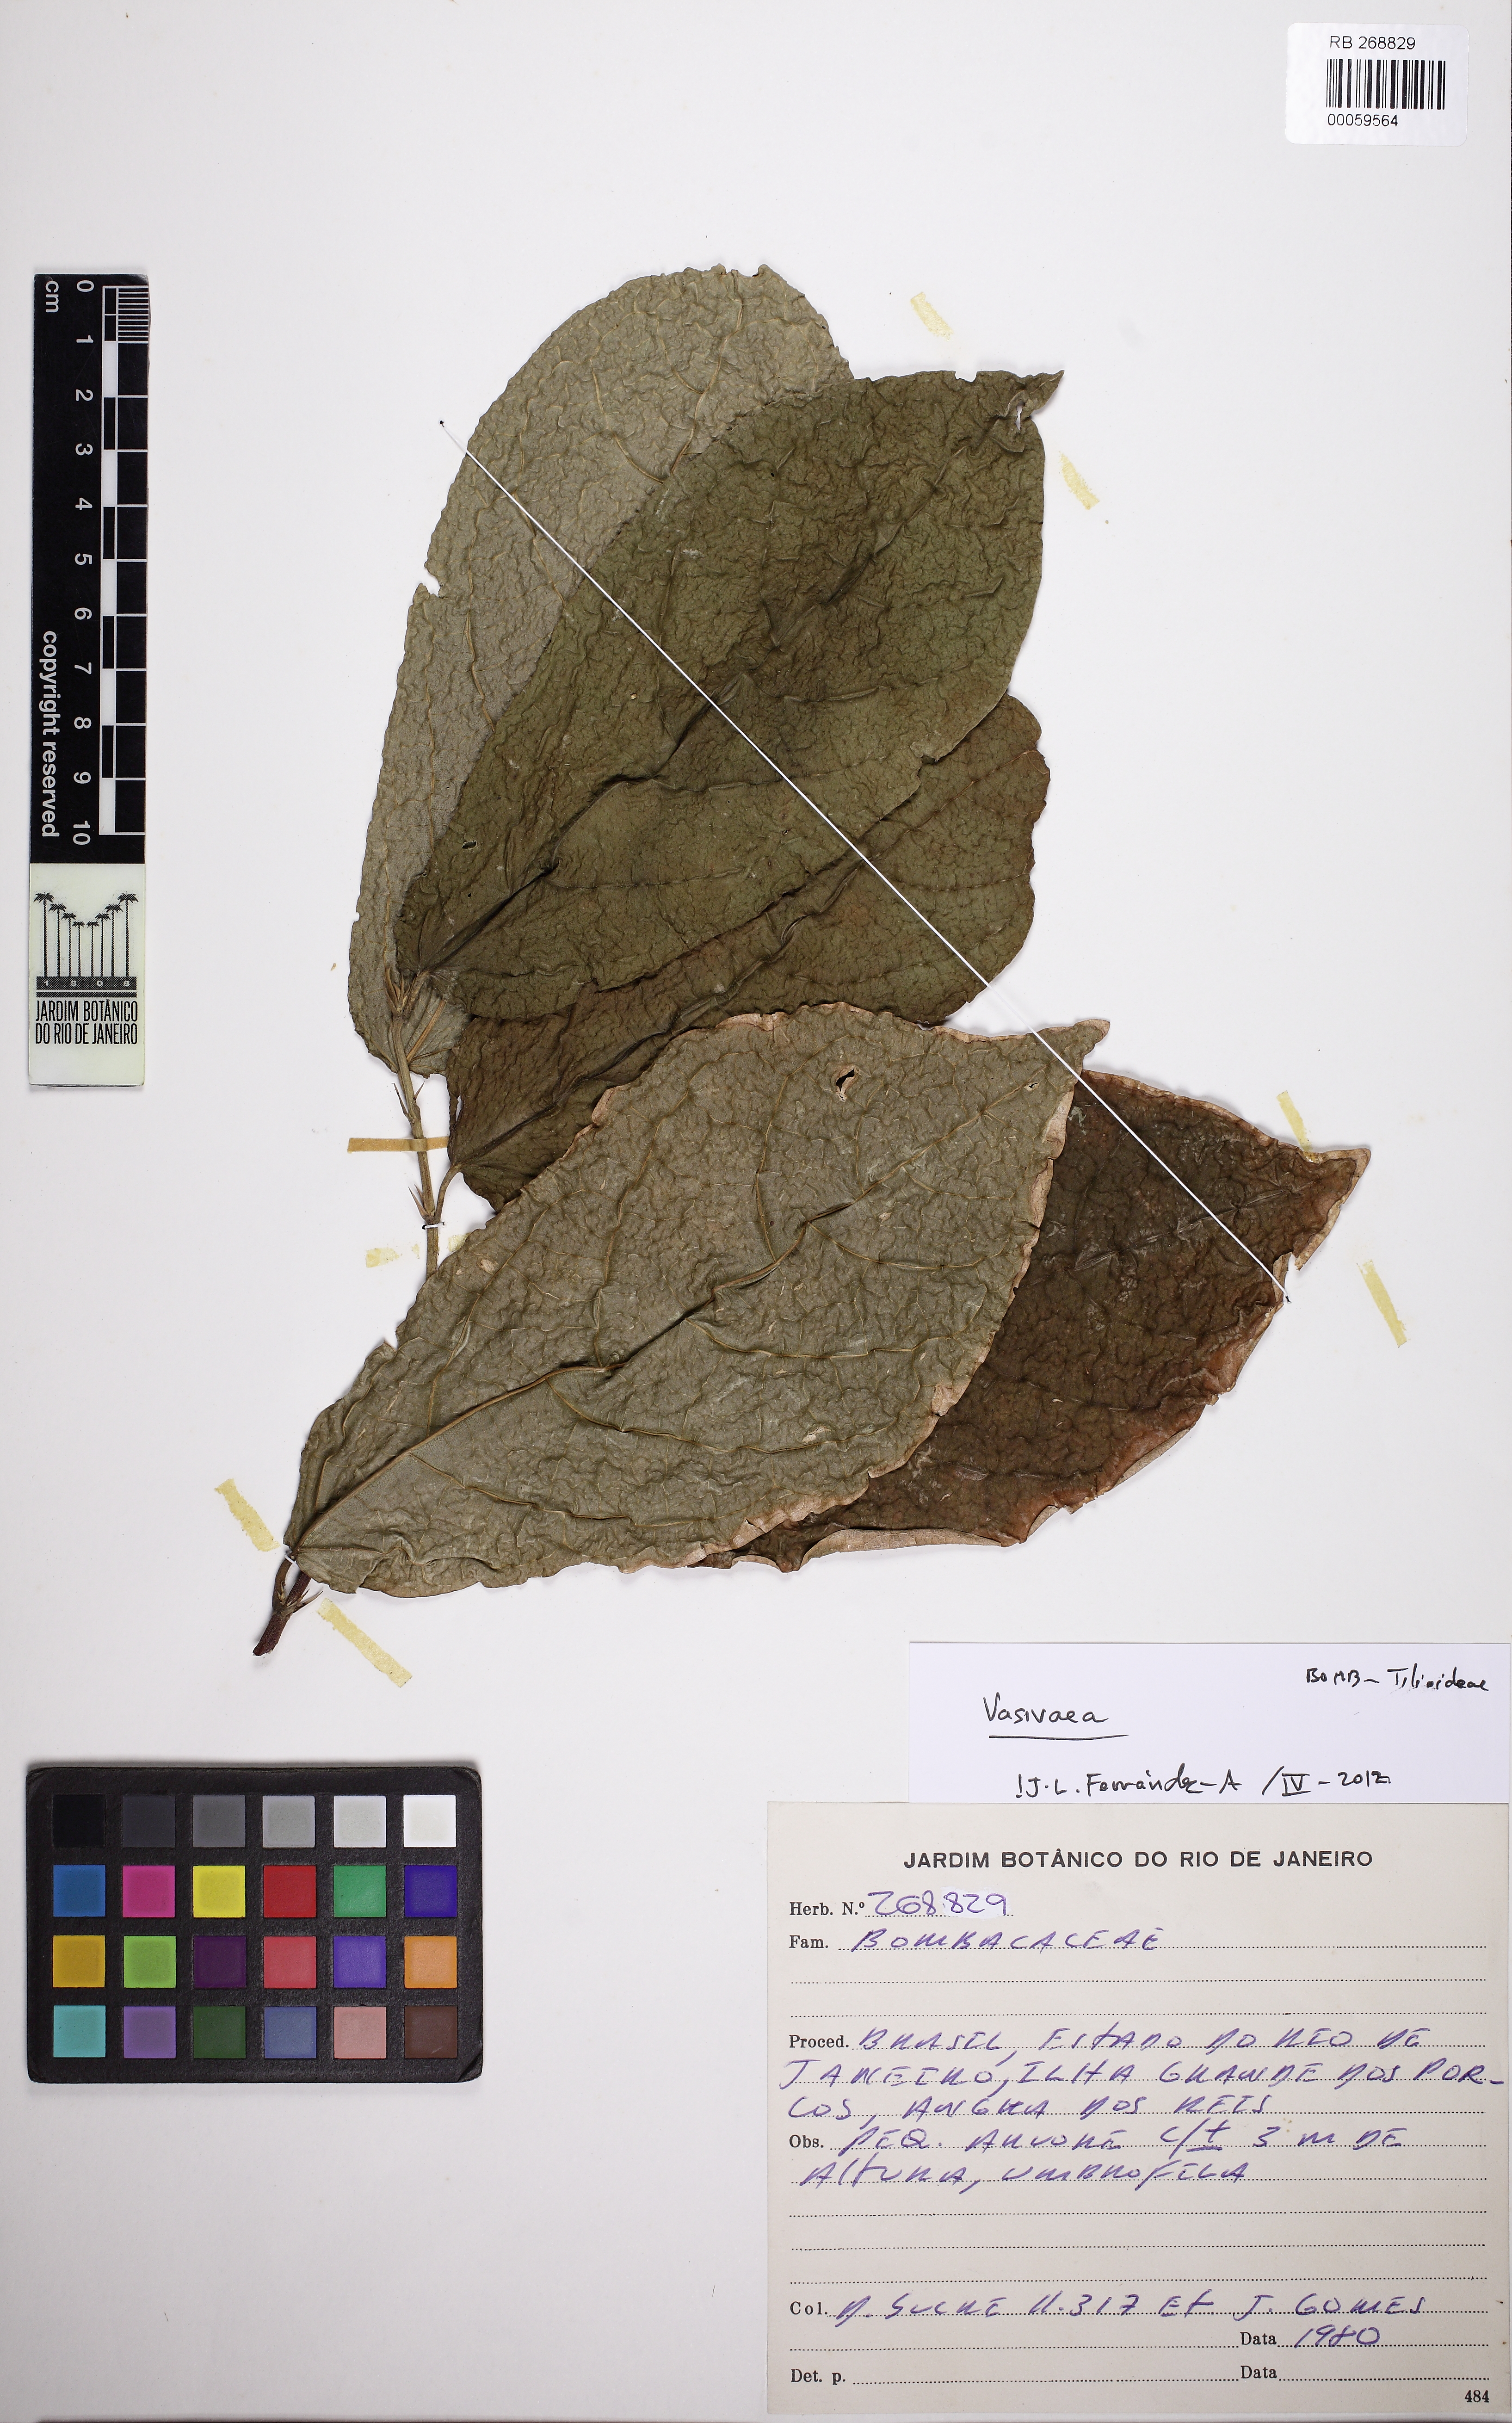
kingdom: Plantae
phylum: Tracheophyta
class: Magnoliopsida
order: Malvales
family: Malvaceae
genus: Vasivaea
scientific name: Vasivaea
